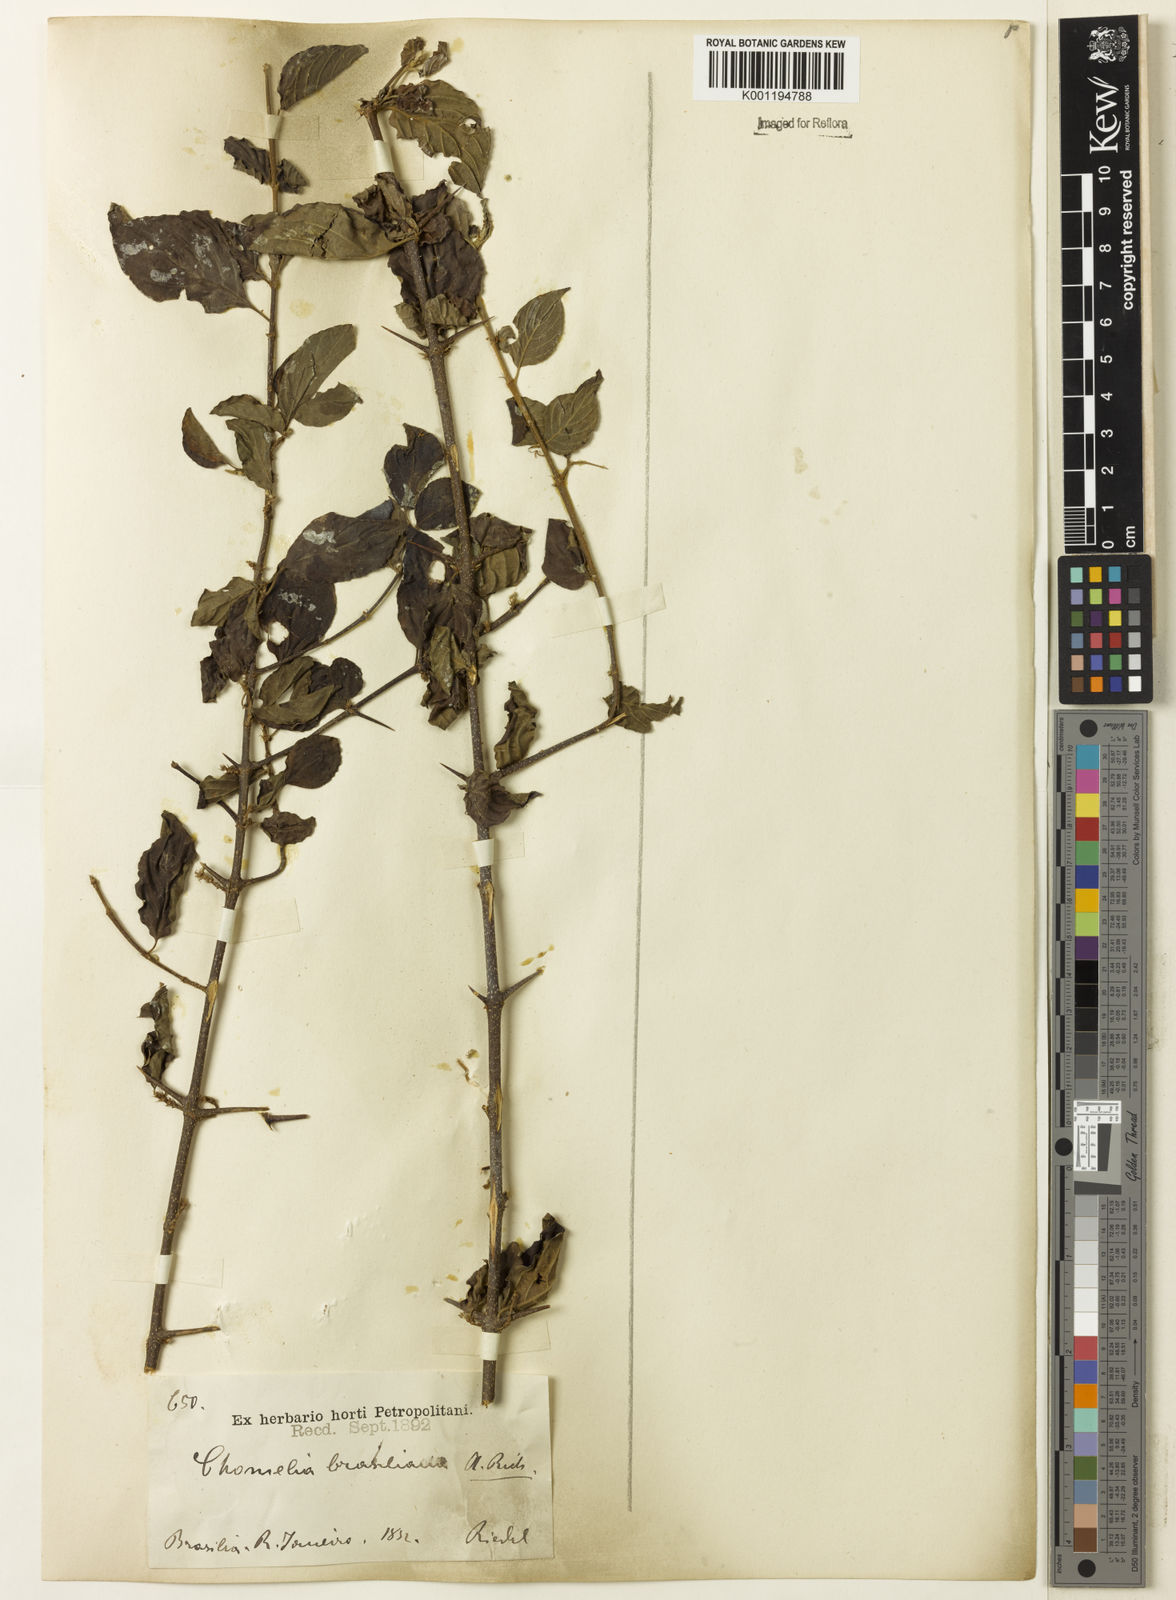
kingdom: Plantae
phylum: Tracheophyta
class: Magnoliopsida
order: Gentianales
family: Rubiaceae
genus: Chomelia
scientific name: Chomelia brasiliana
